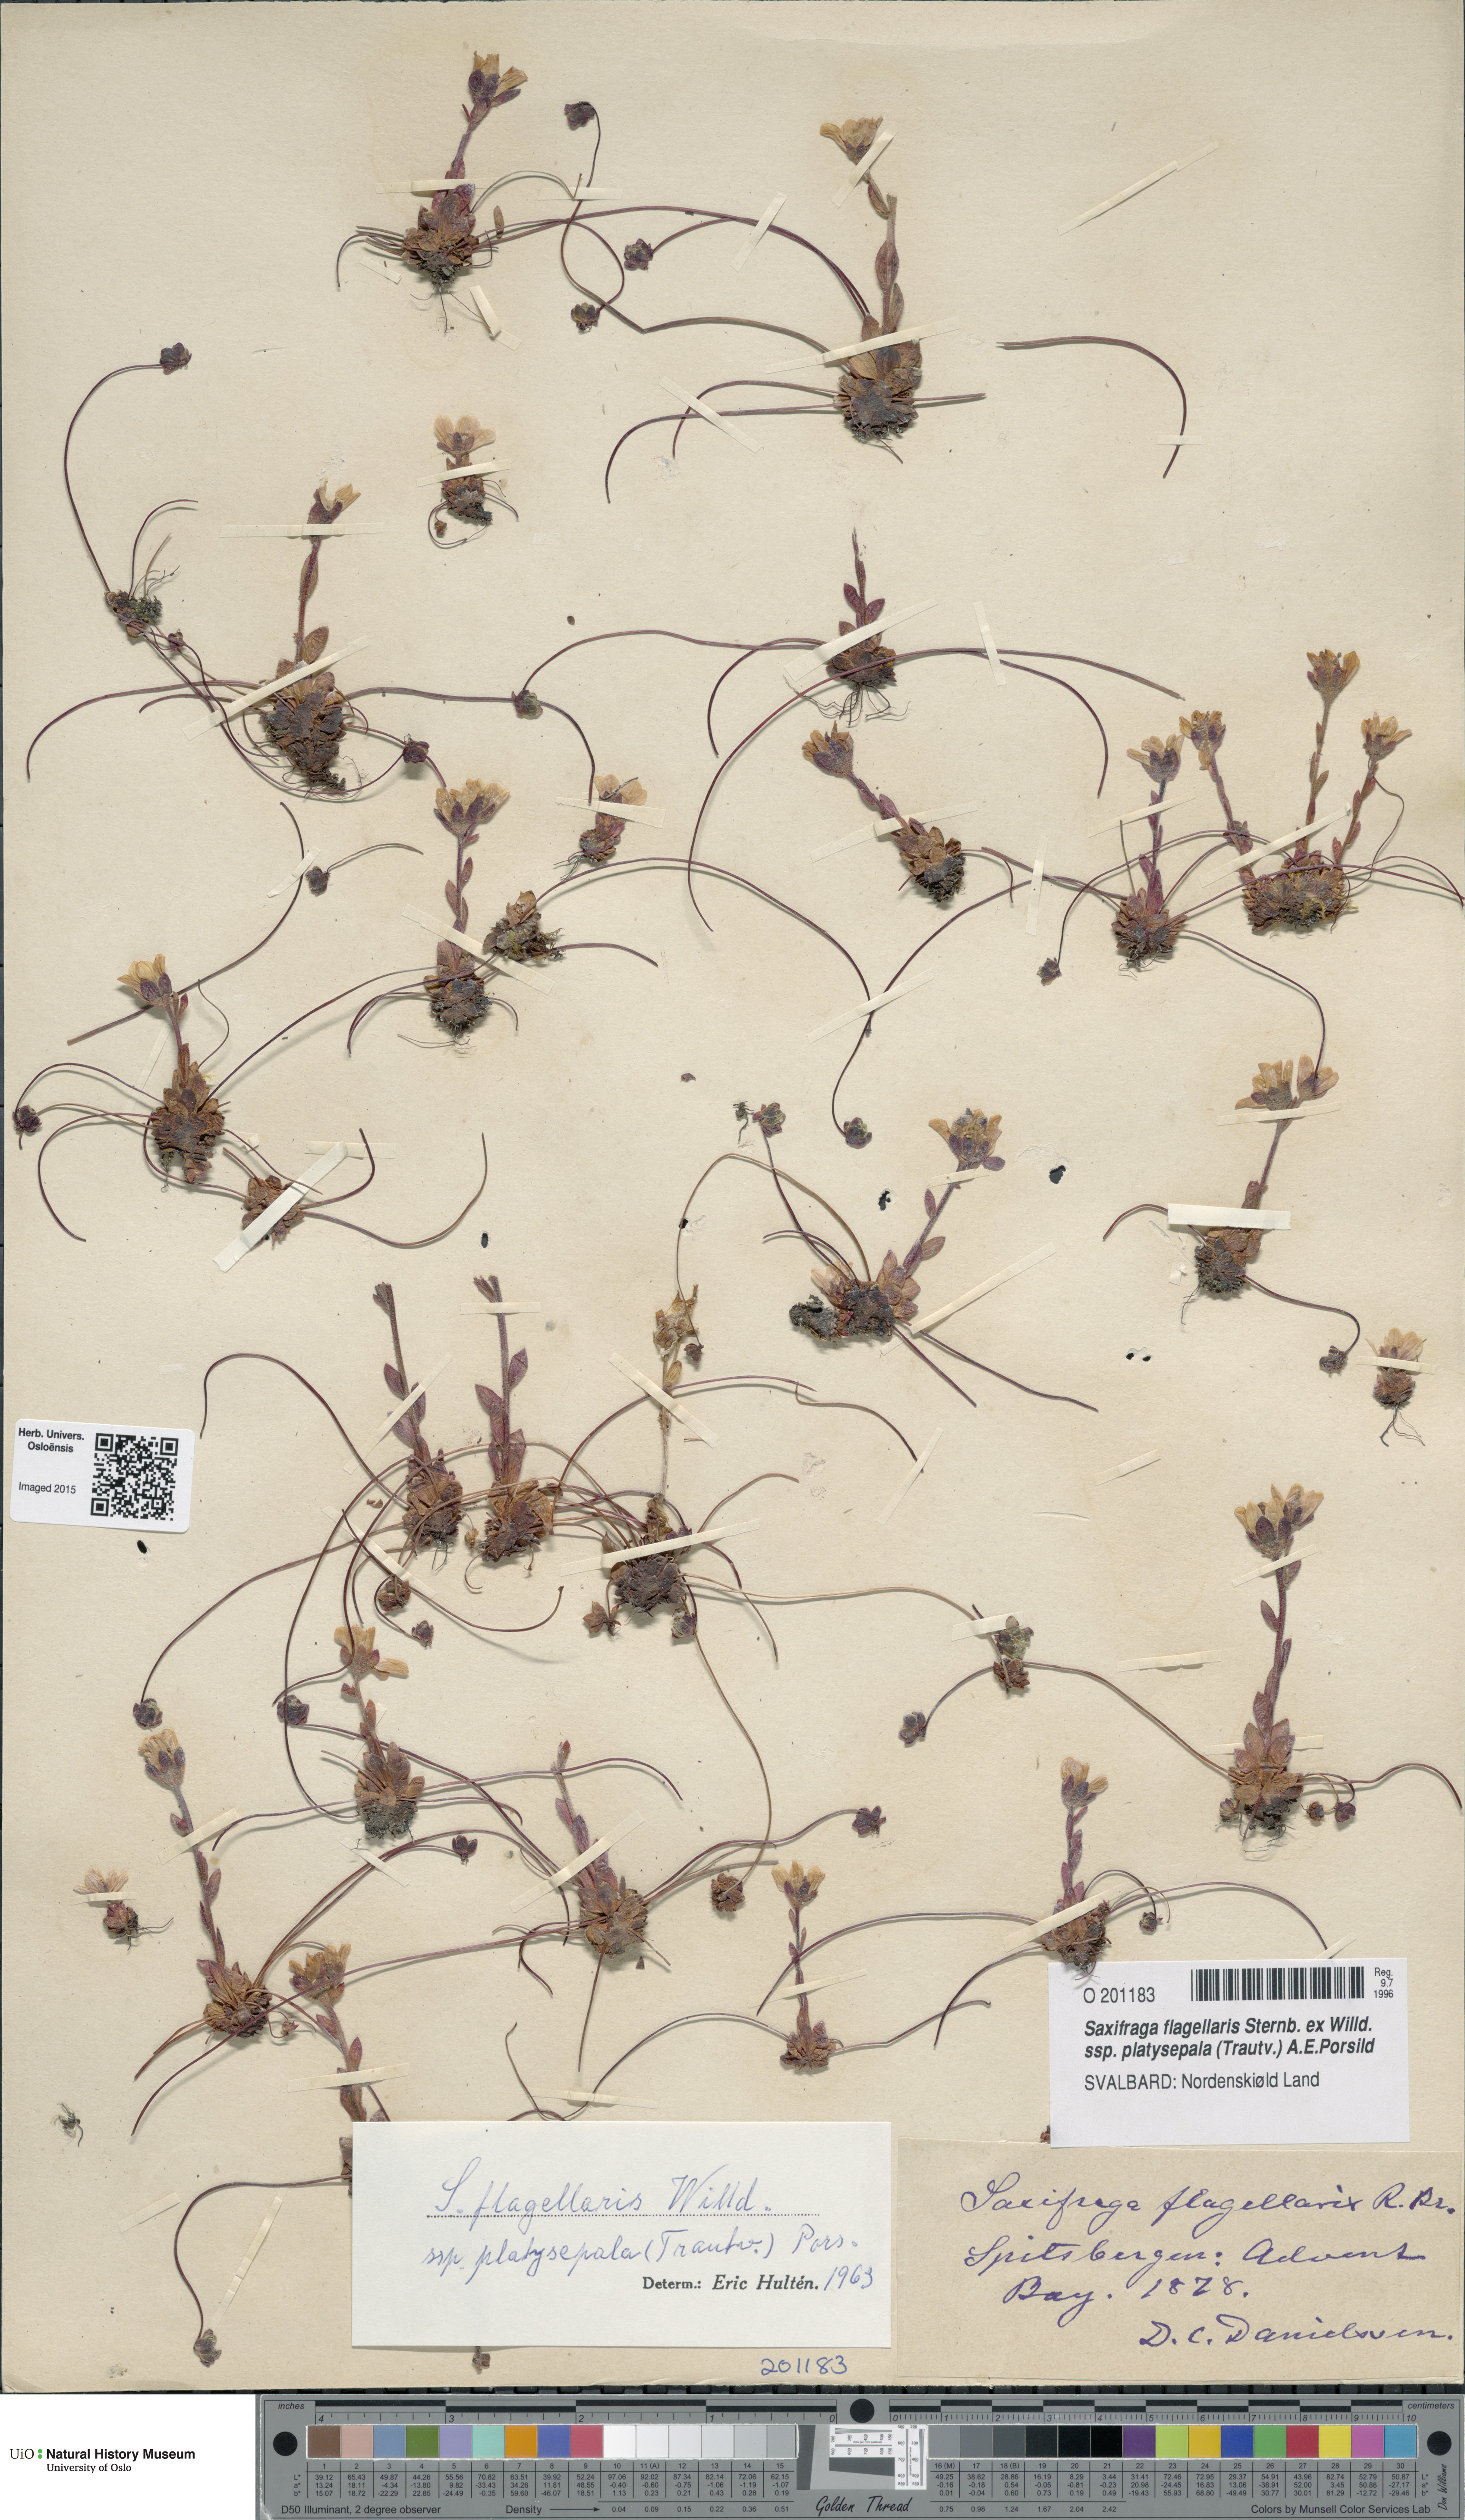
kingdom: Plantae
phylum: Tracheophyta
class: Magnoliopsida
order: Saxifragales
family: Saxifragaceae
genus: Saxifraga
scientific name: Saxifraga platysepala
